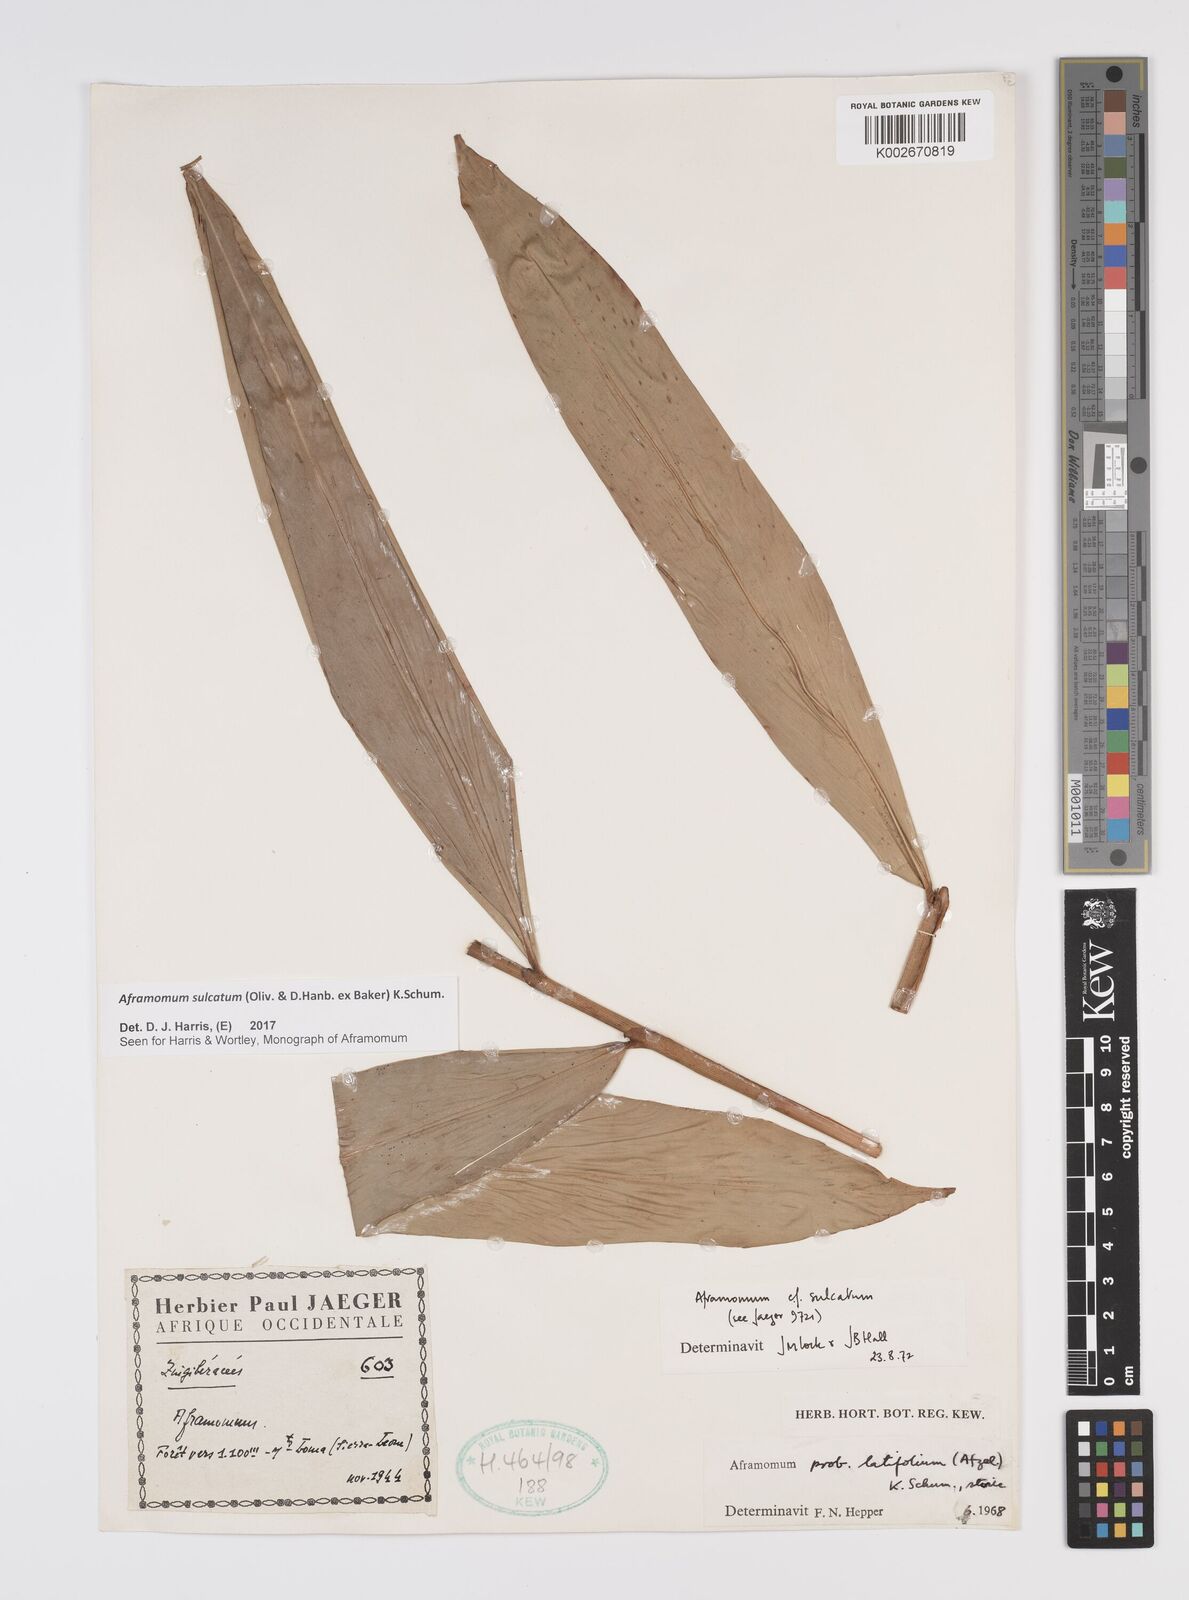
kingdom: Plantae
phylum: Tracheophyta
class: Liliopsida
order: Zingiberales
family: Zingiberaceae
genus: Aframomum
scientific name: Aframomum sulcatum
